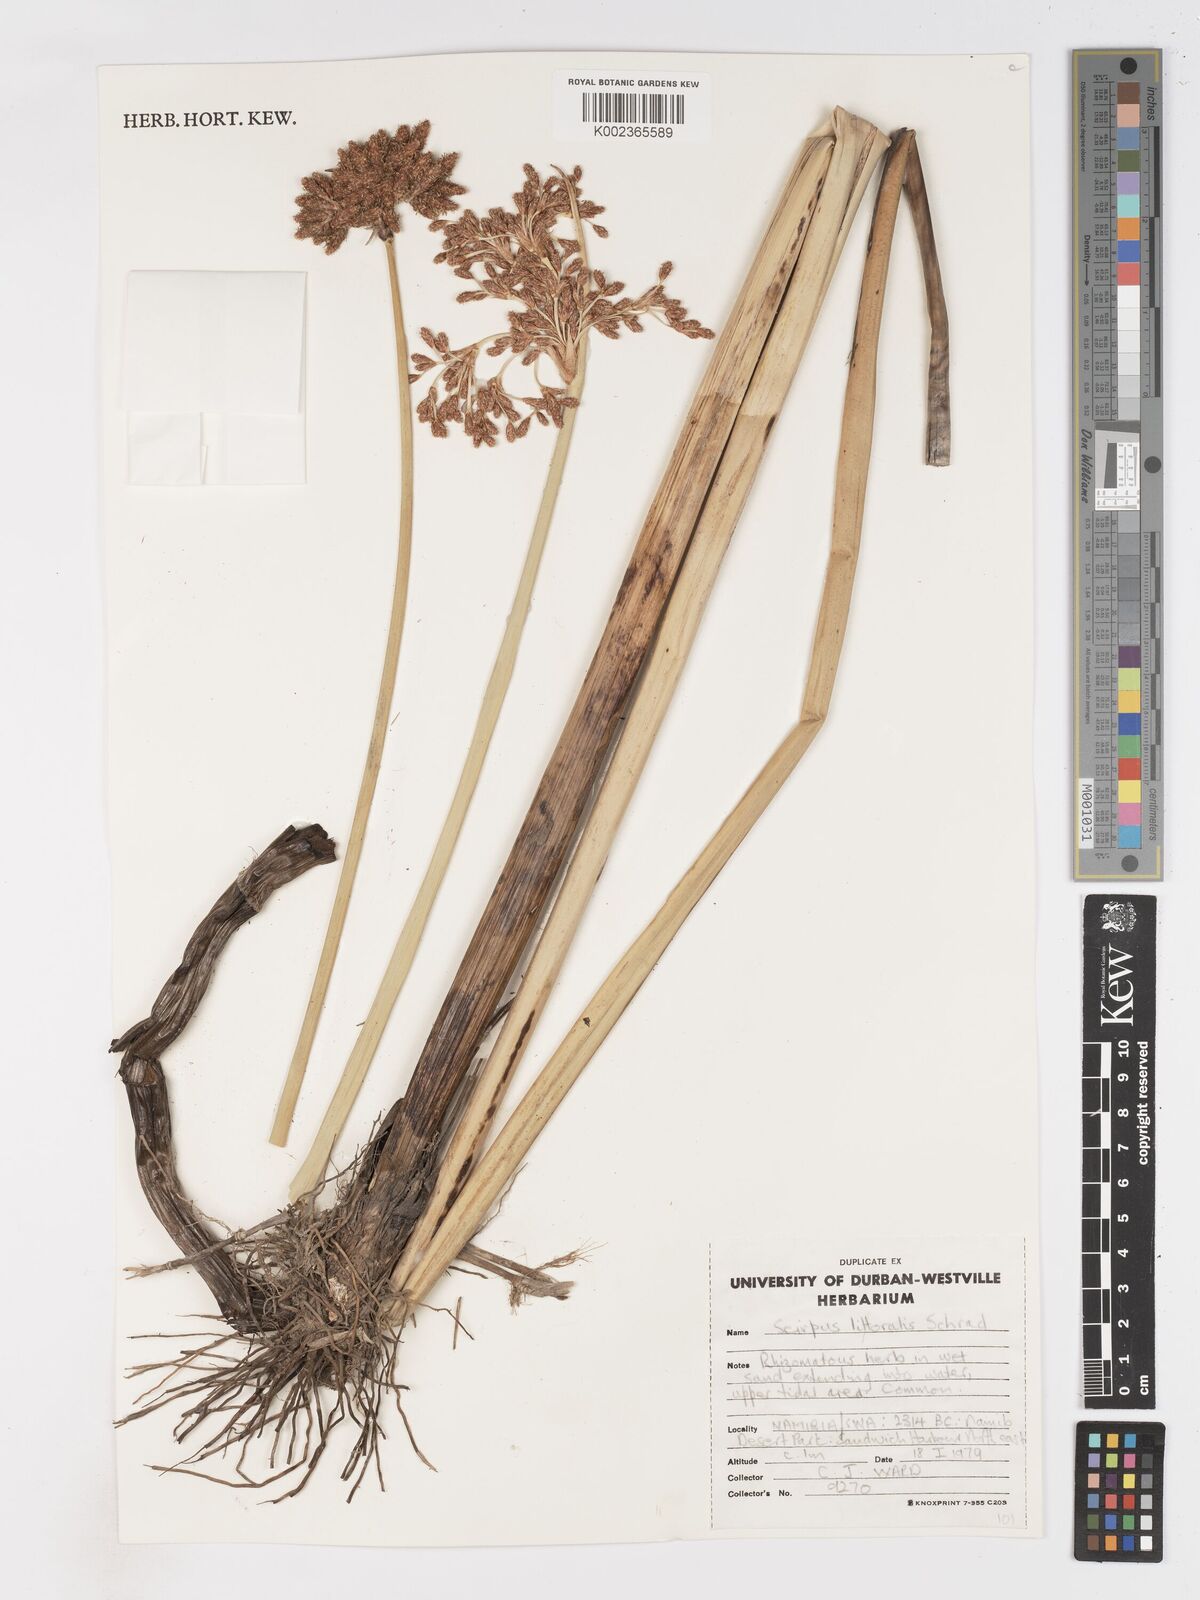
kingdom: Plantae
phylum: Tracheophyta
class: Liliopsida
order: Poales
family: Cyperaceae
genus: Schoenoplectus
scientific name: Schoenoplectus
